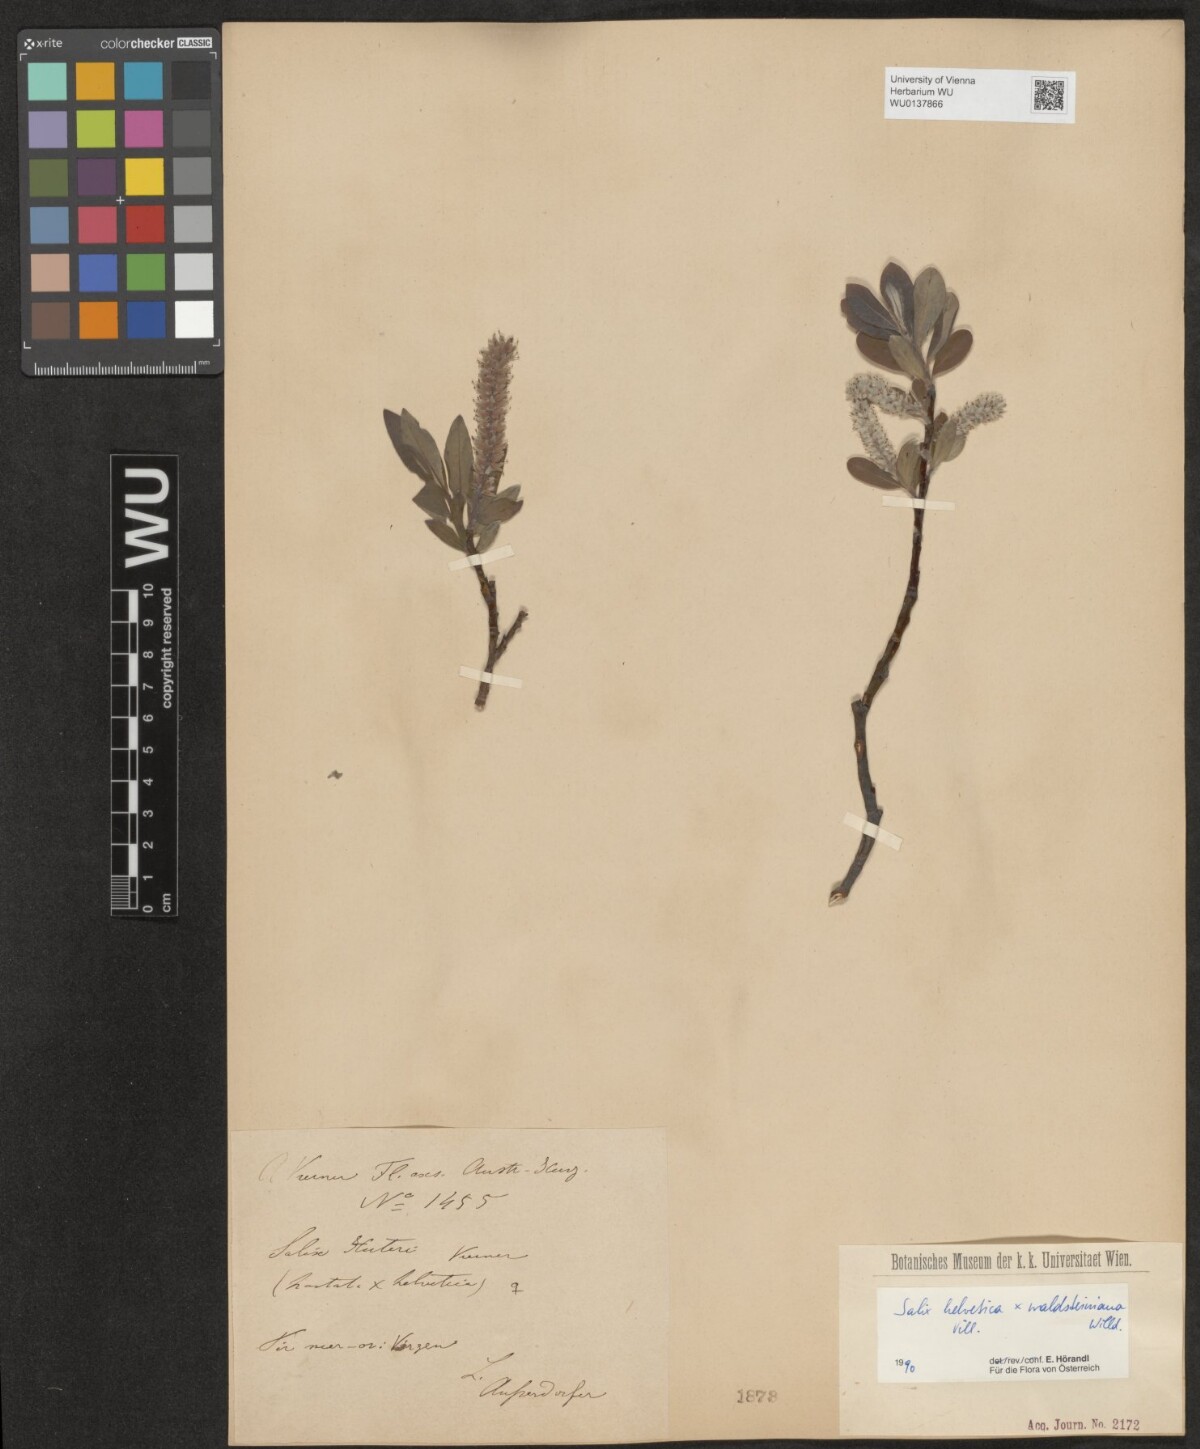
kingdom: Plantae
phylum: Tracheophyta
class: Magnoliopsida
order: Malpighiales
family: Salicaceae
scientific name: Salicaceae
